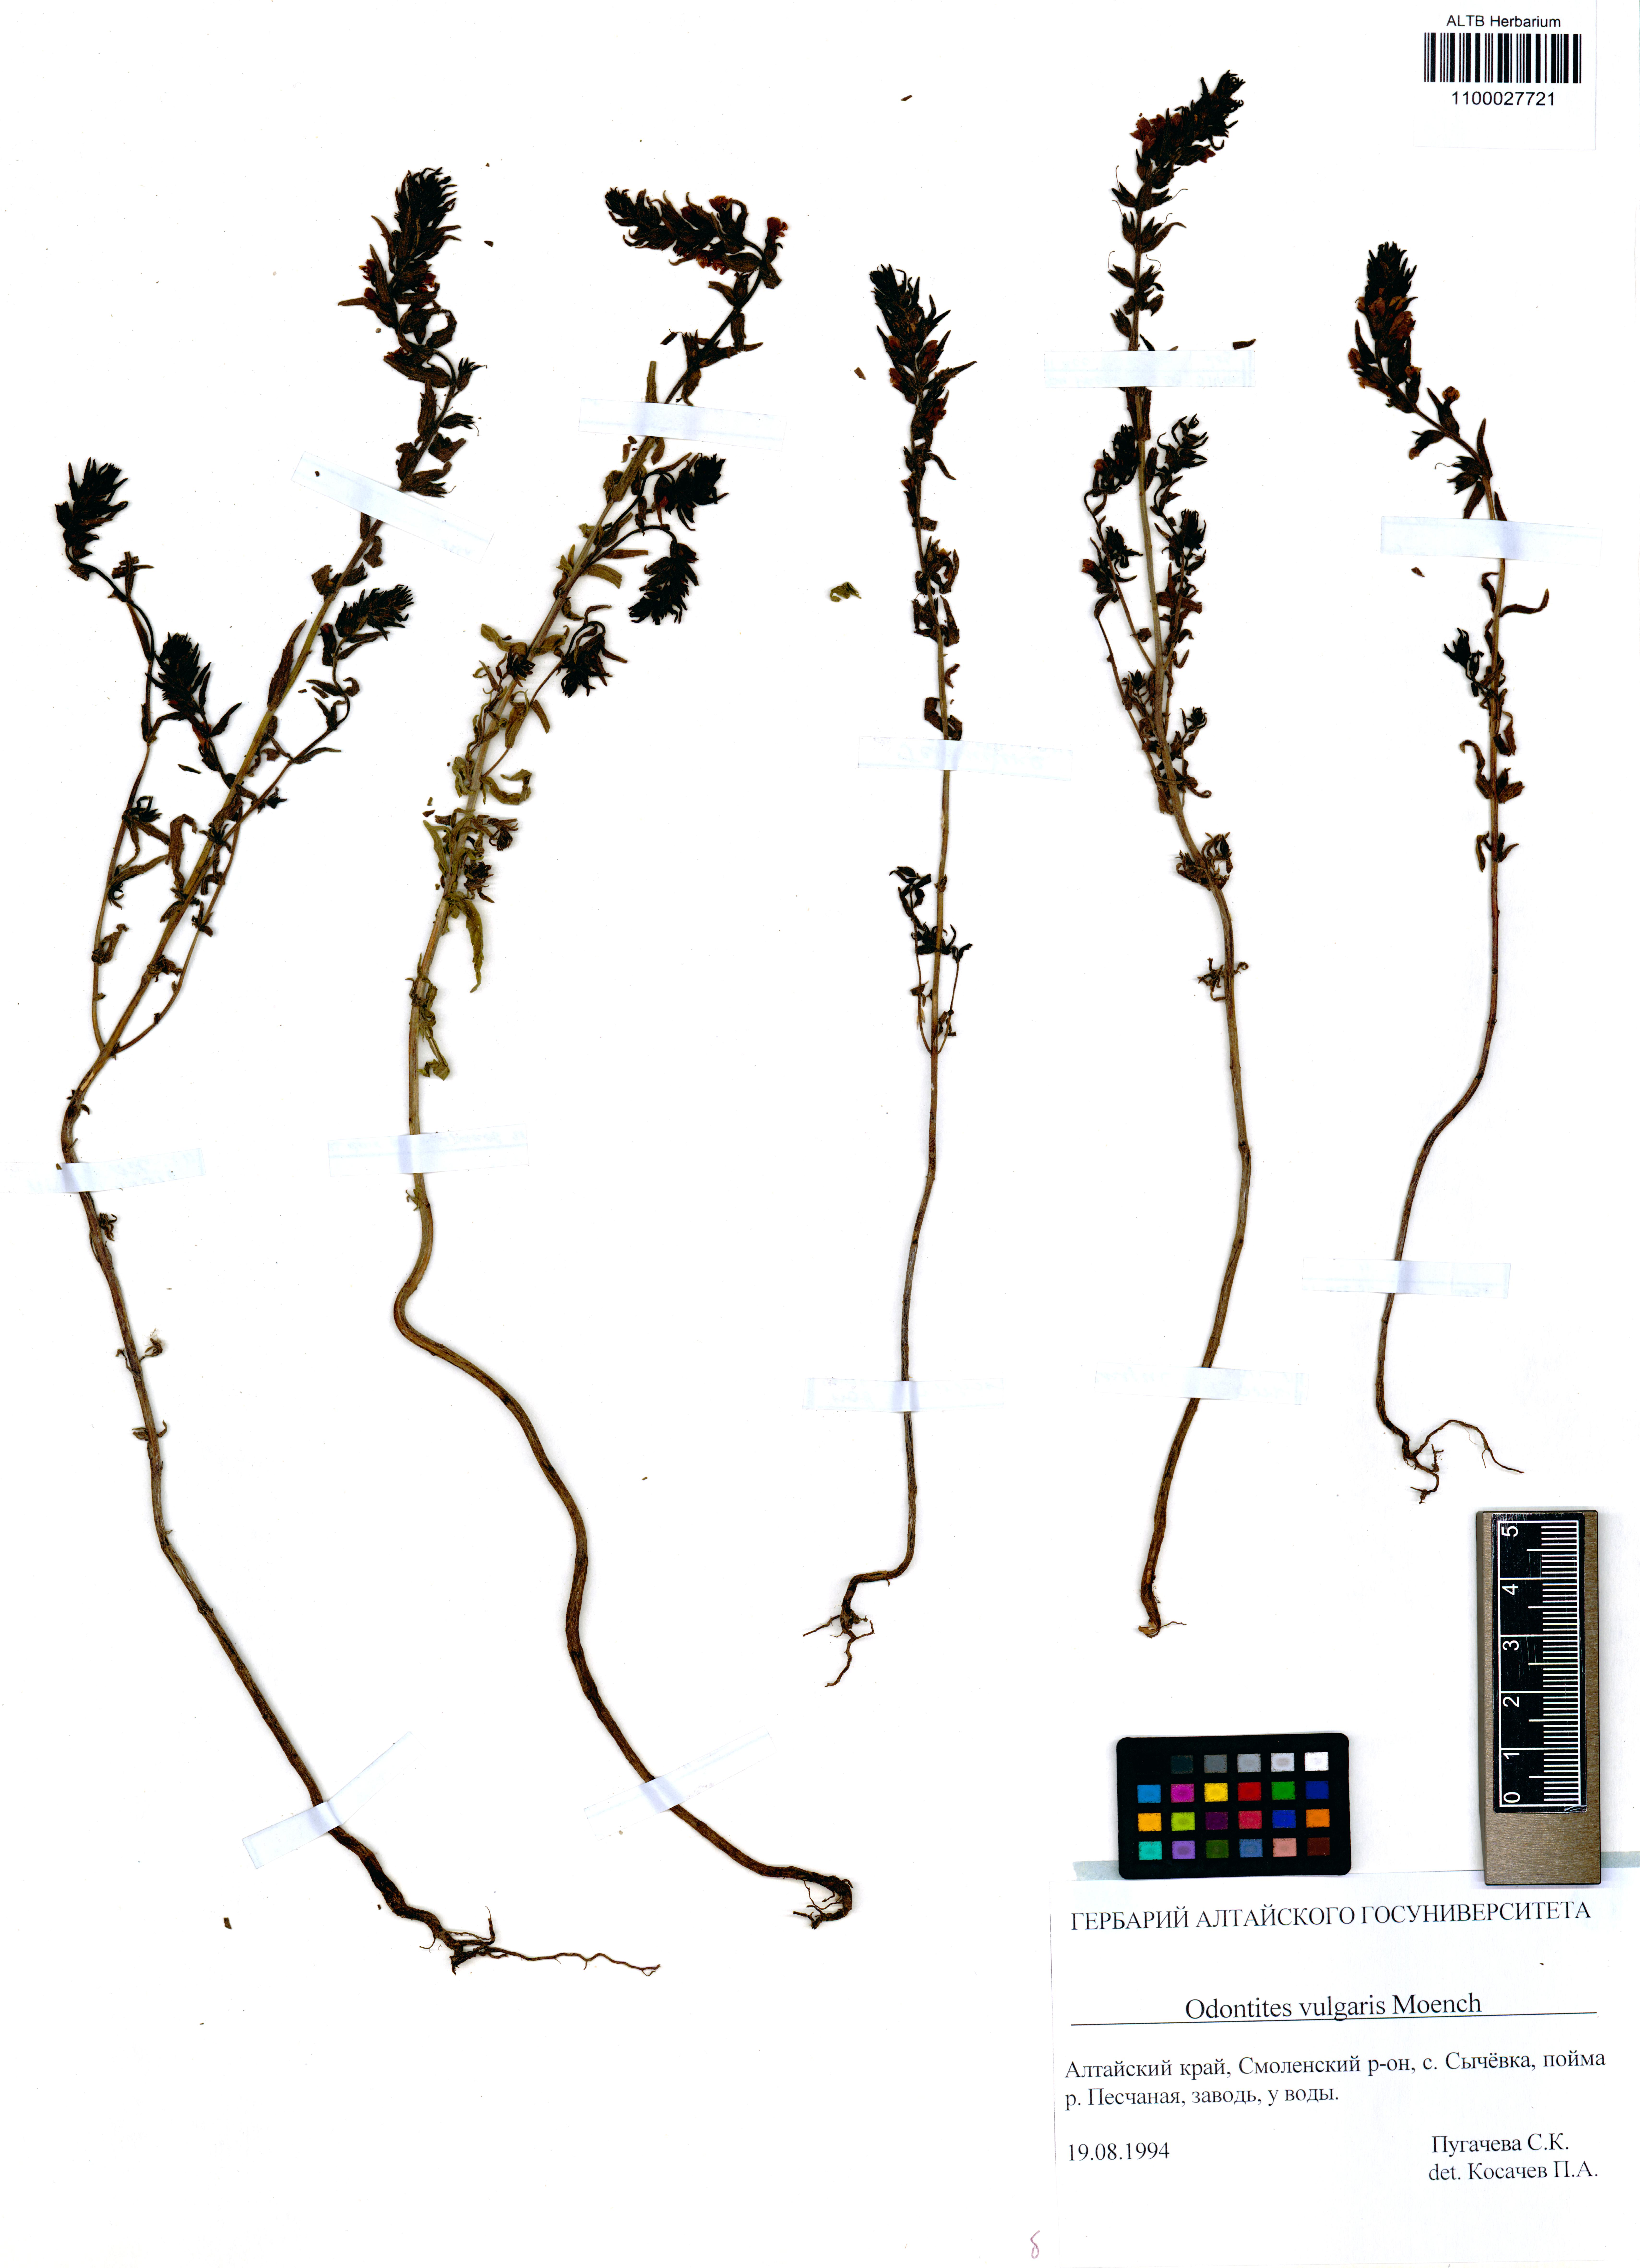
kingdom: Plantae
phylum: Tracheophyta
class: Magnoliopsida
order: Lamiales
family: Orobanchaceae
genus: Odontites
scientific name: Odontites vulgaris
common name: Broomrape
